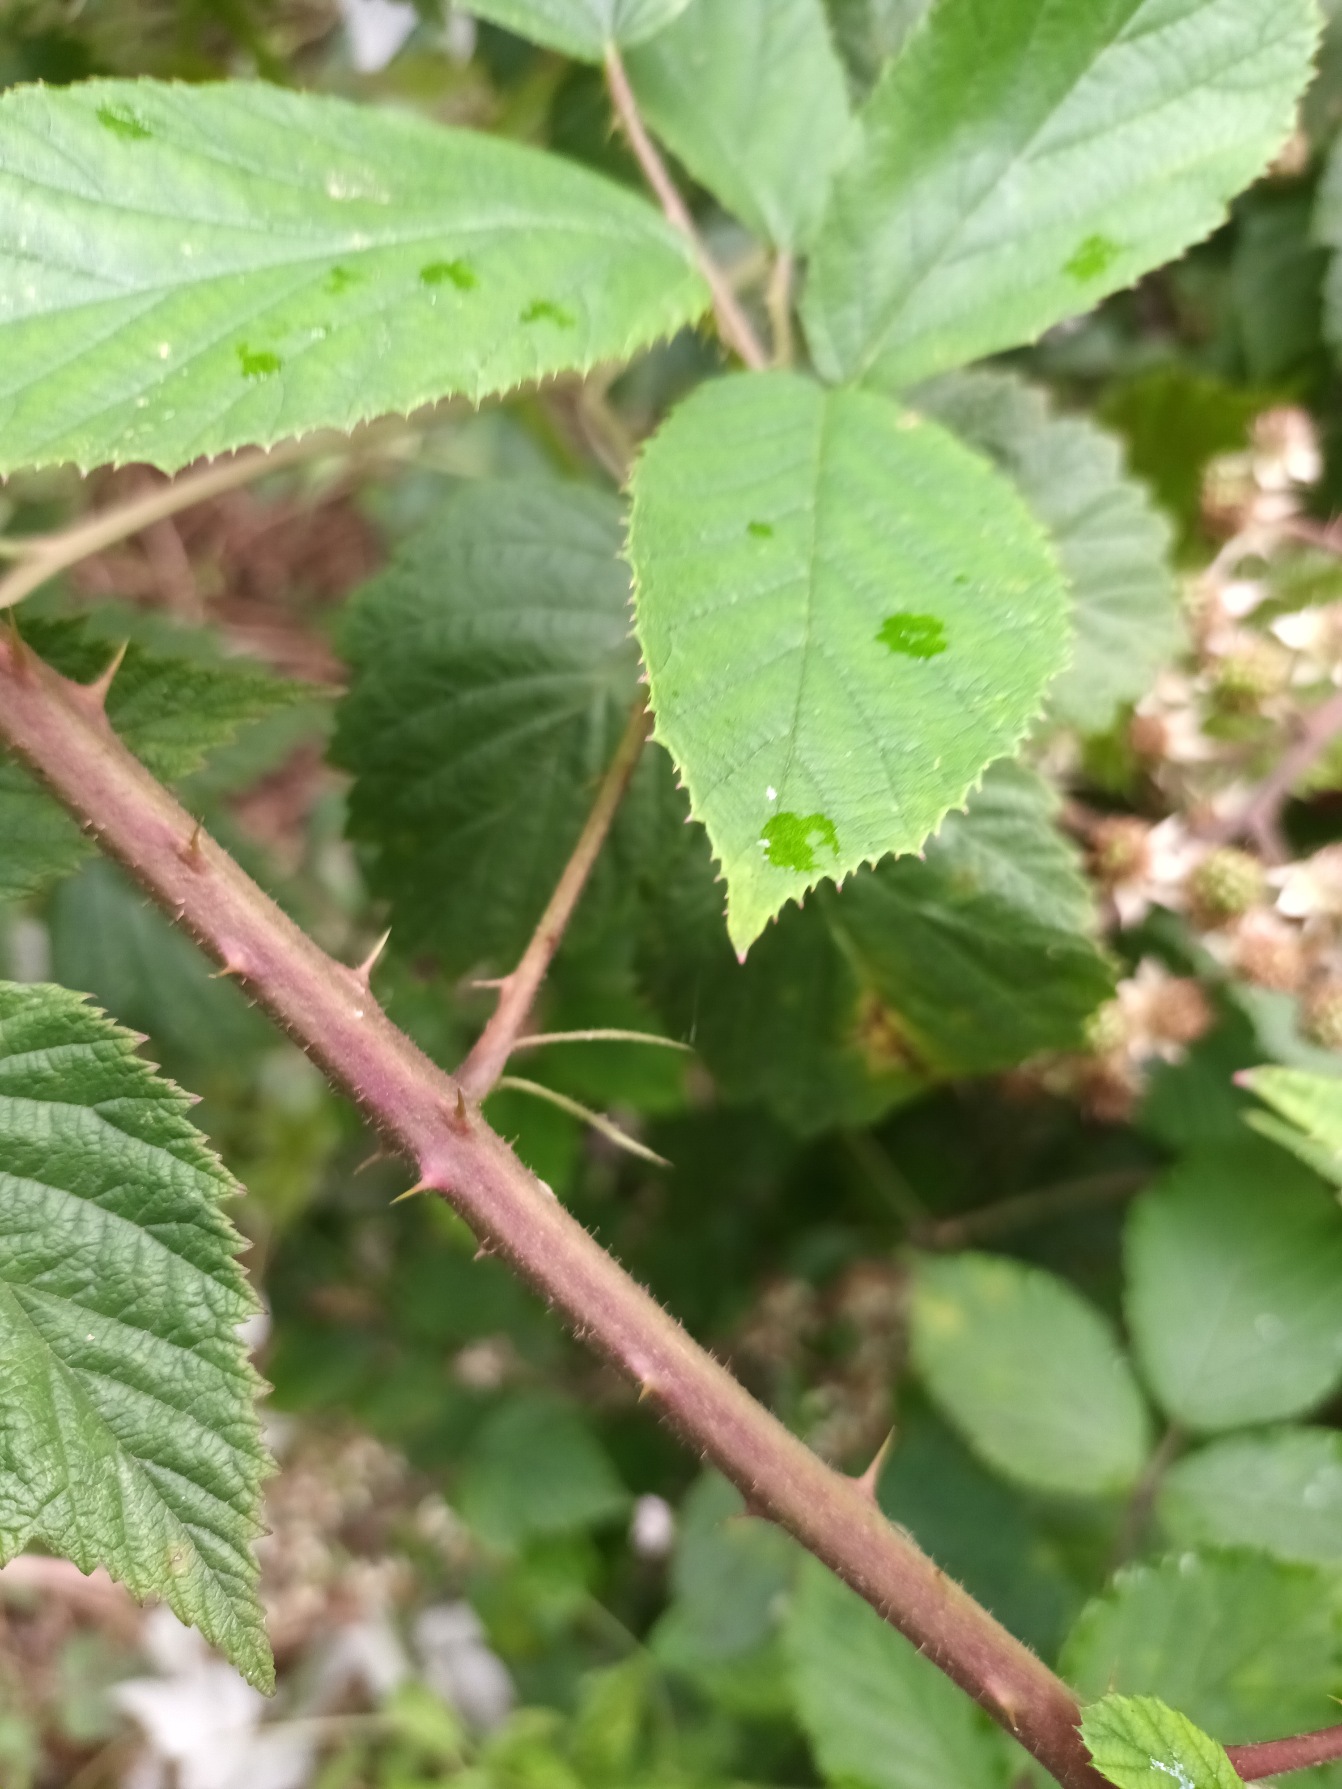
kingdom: Plantae
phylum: Tracheophyta
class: Magnoliopsida
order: Rosales
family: Rosaceae
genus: Rubus
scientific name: Rubus radula
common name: Rasperu brombær
